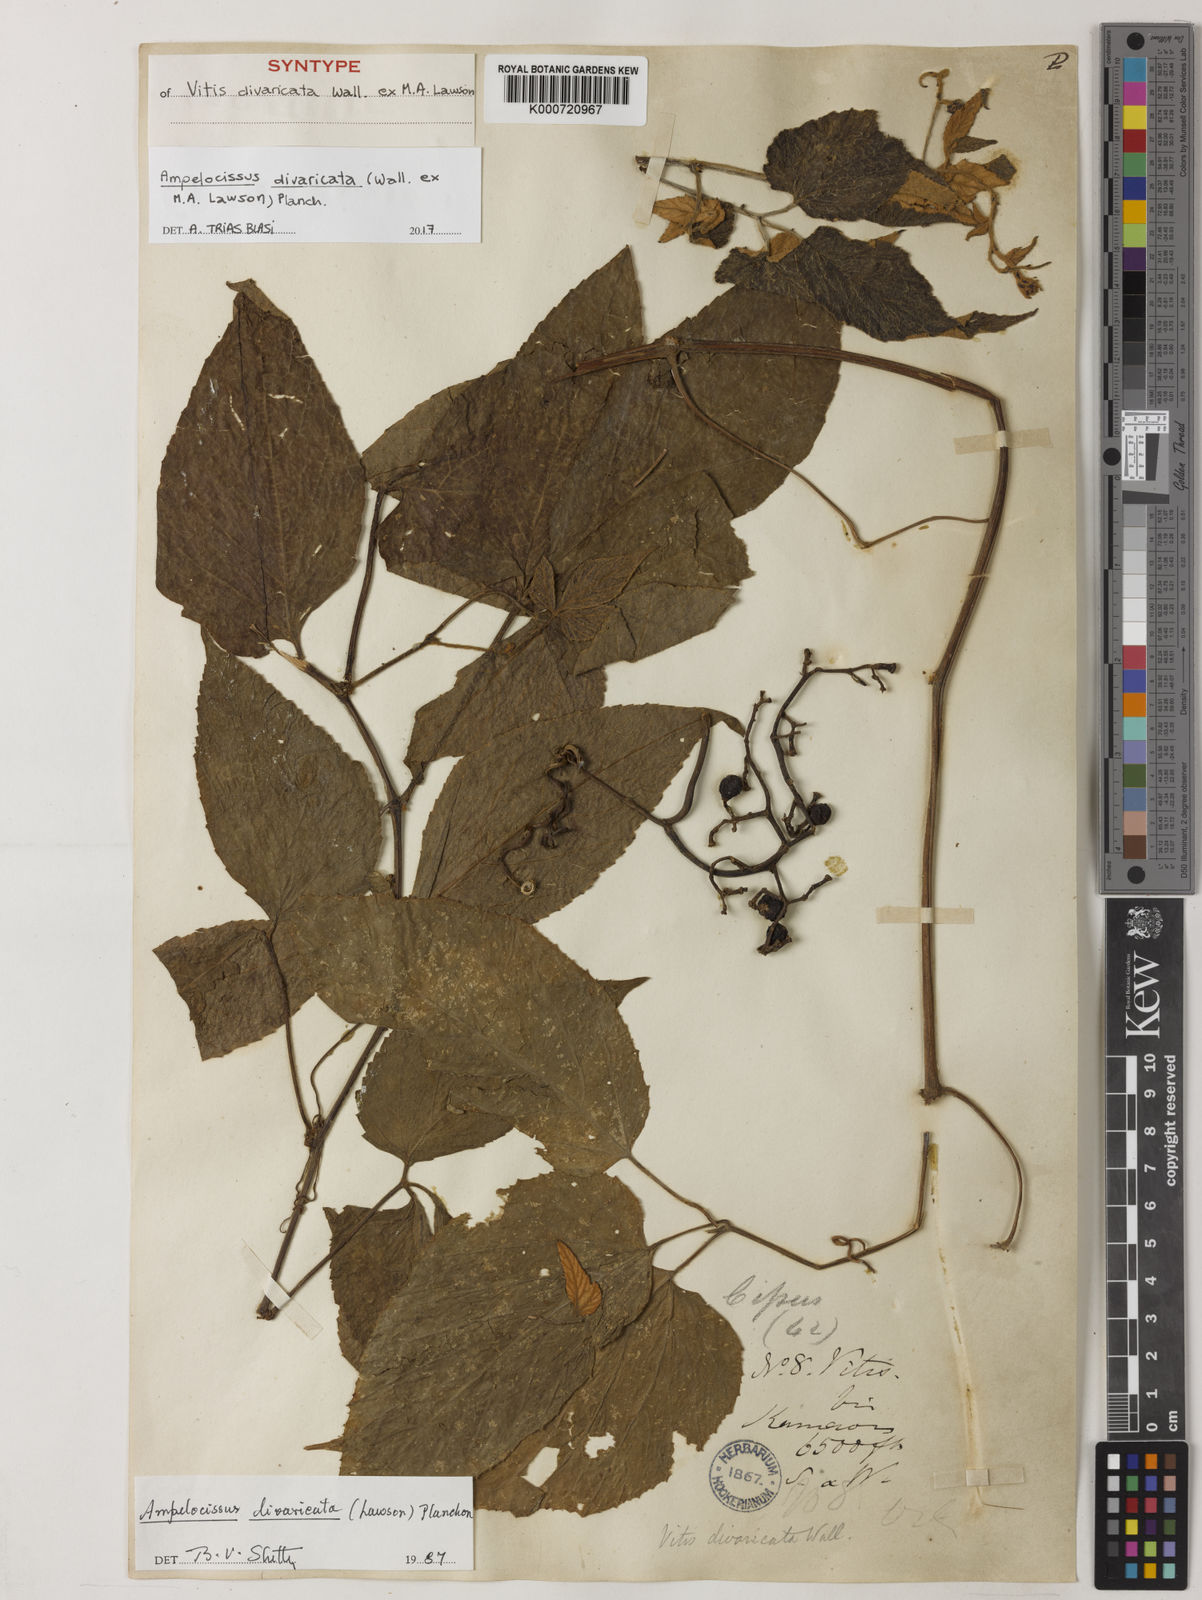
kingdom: Plantae
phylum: Tracheophyta
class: Magnoliopsida
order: Vitales
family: Vitaceae
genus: Ampelocissus
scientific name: Ampelocissus divaricata
